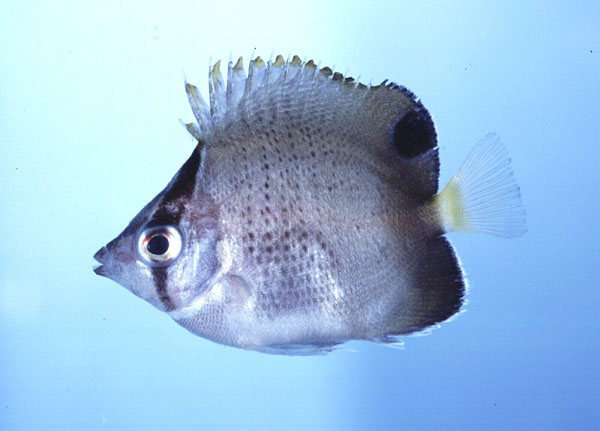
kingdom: Animalia
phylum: Chordata
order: Perciformes
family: Chaetodontidae
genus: Chaetodon
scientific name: Chaetodon dolosus
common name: African butterflyfish
